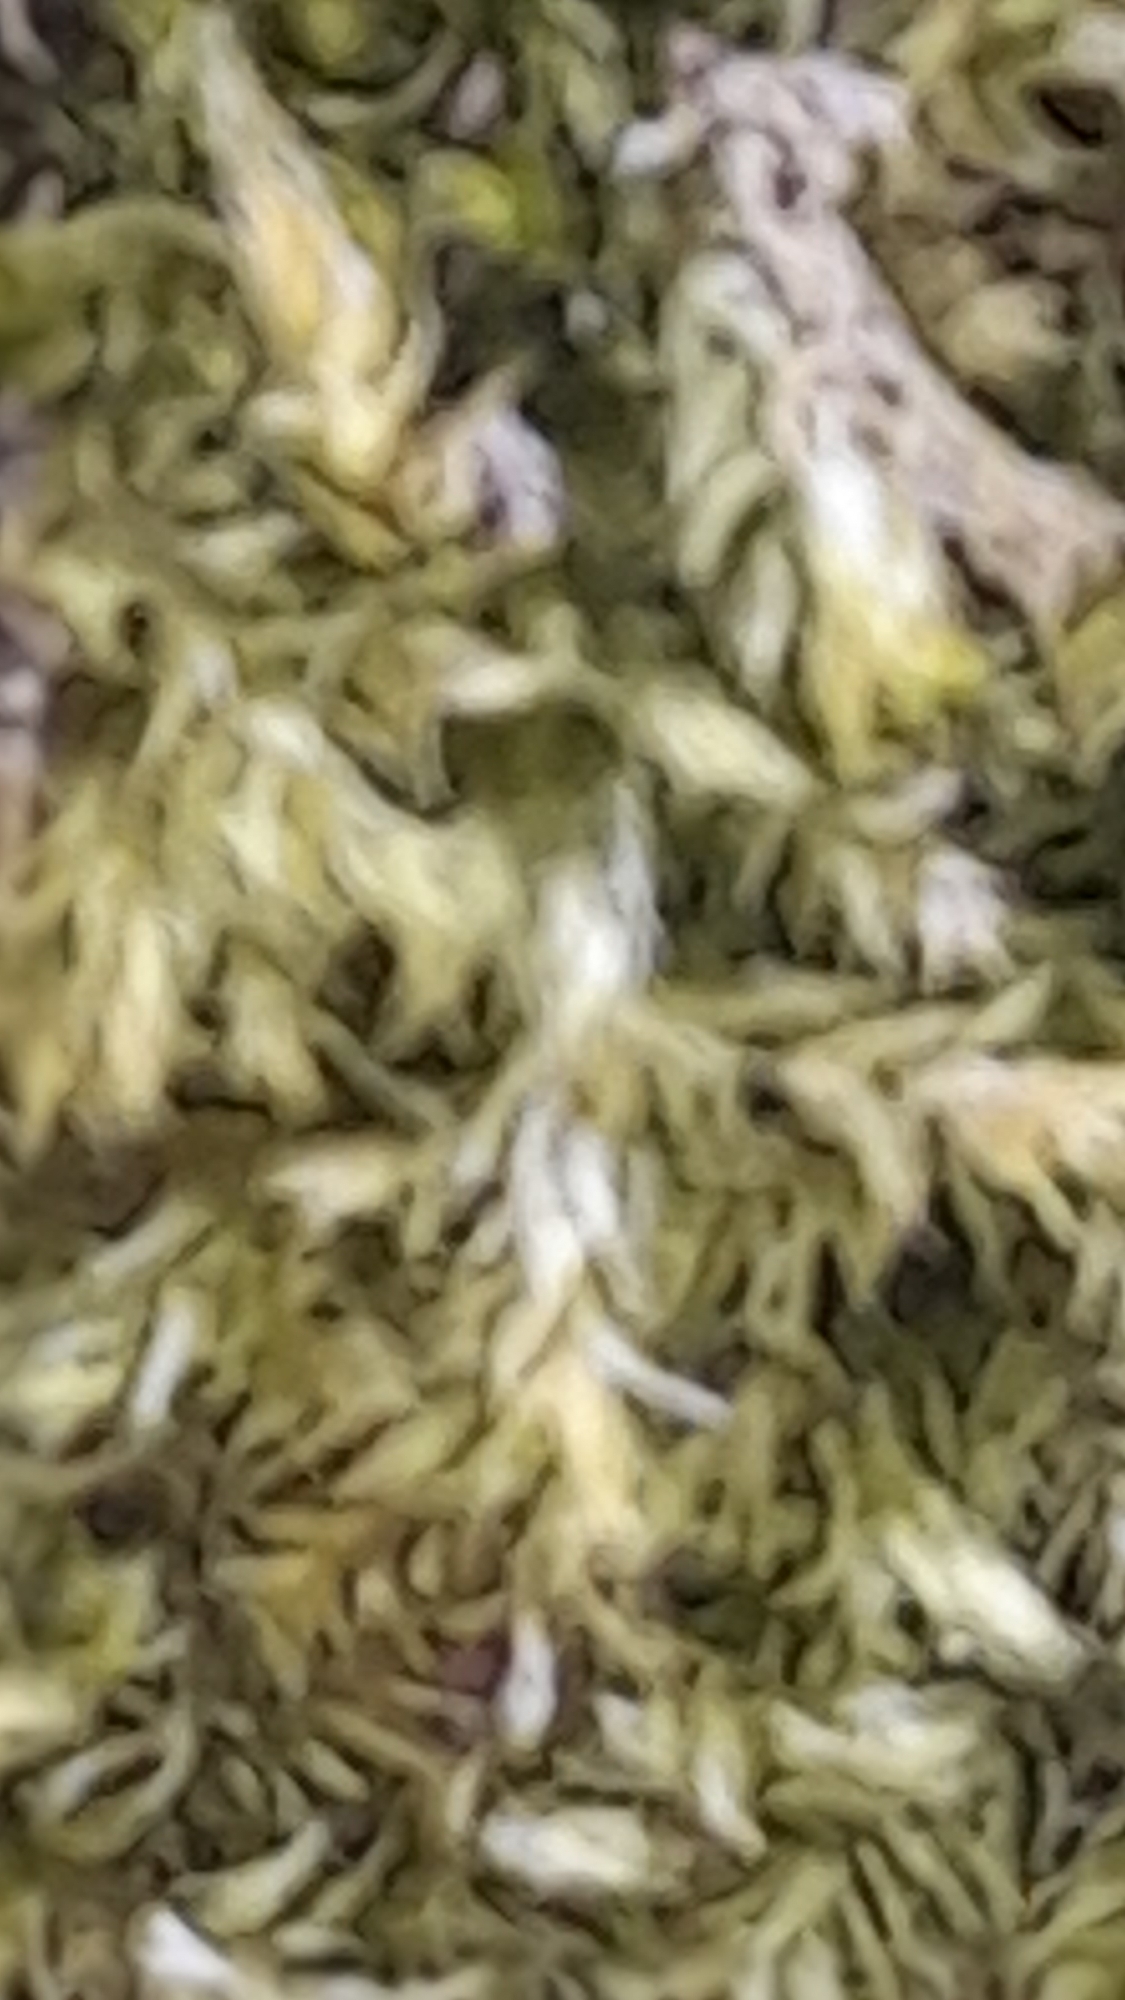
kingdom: Plantae
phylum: Bryophyta
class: Bryopsida
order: Hypnales
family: Brachytheciaceae
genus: Brachythecium
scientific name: Brachythecium rutabulum
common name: Almindelig kortkapsel
